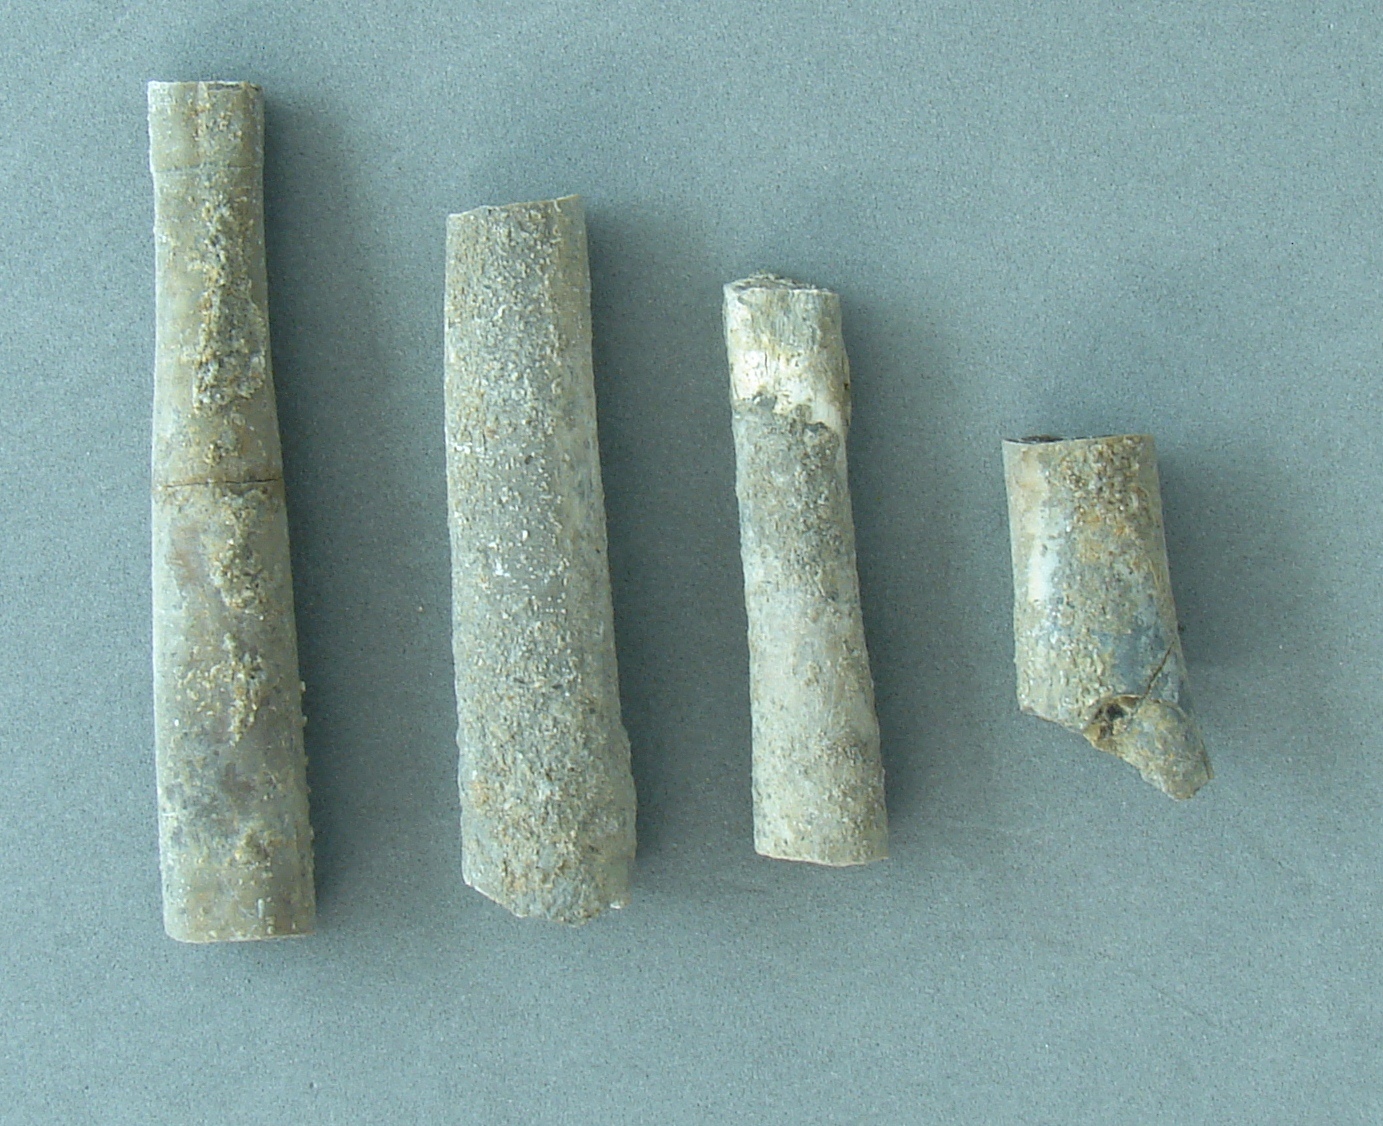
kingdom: Animalia
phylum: Mollusca
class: Cephalopoda
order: Belemnitida
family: Megateuthididae
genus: Acrocoelites
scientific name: Acrocoelites riegrafi
